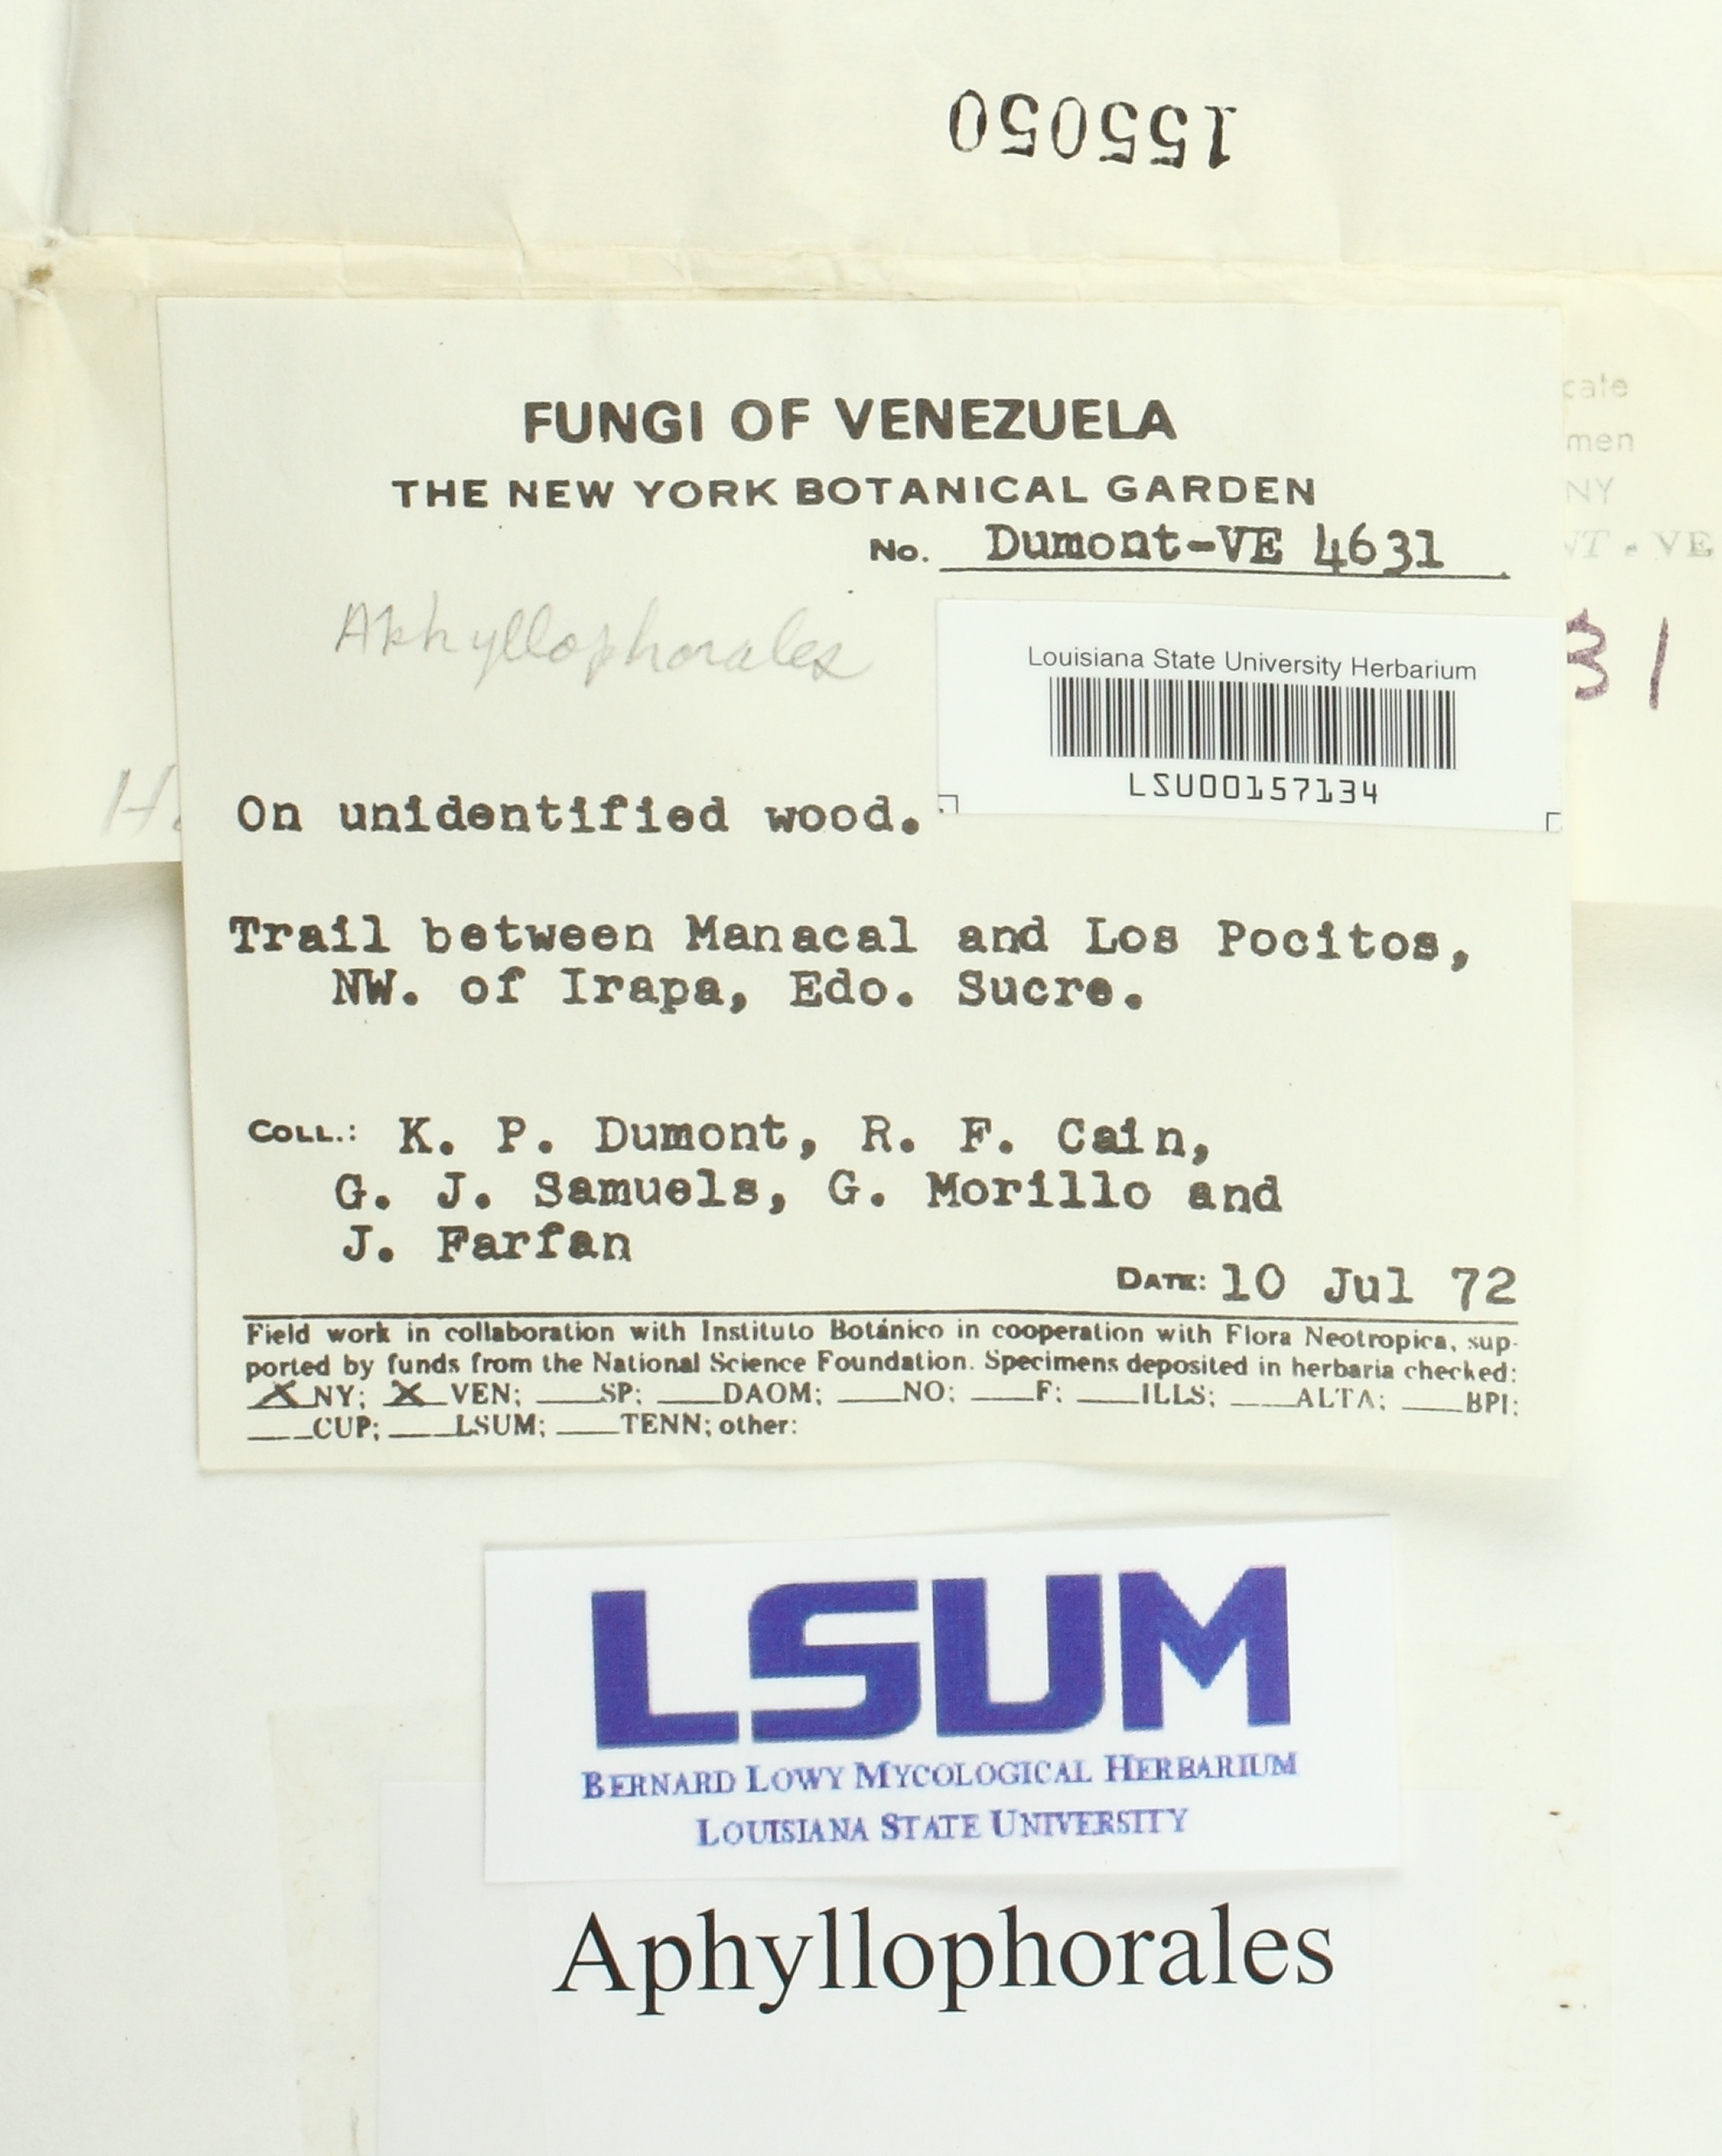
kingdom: Fungi
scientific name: Fungi
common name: Fungi
